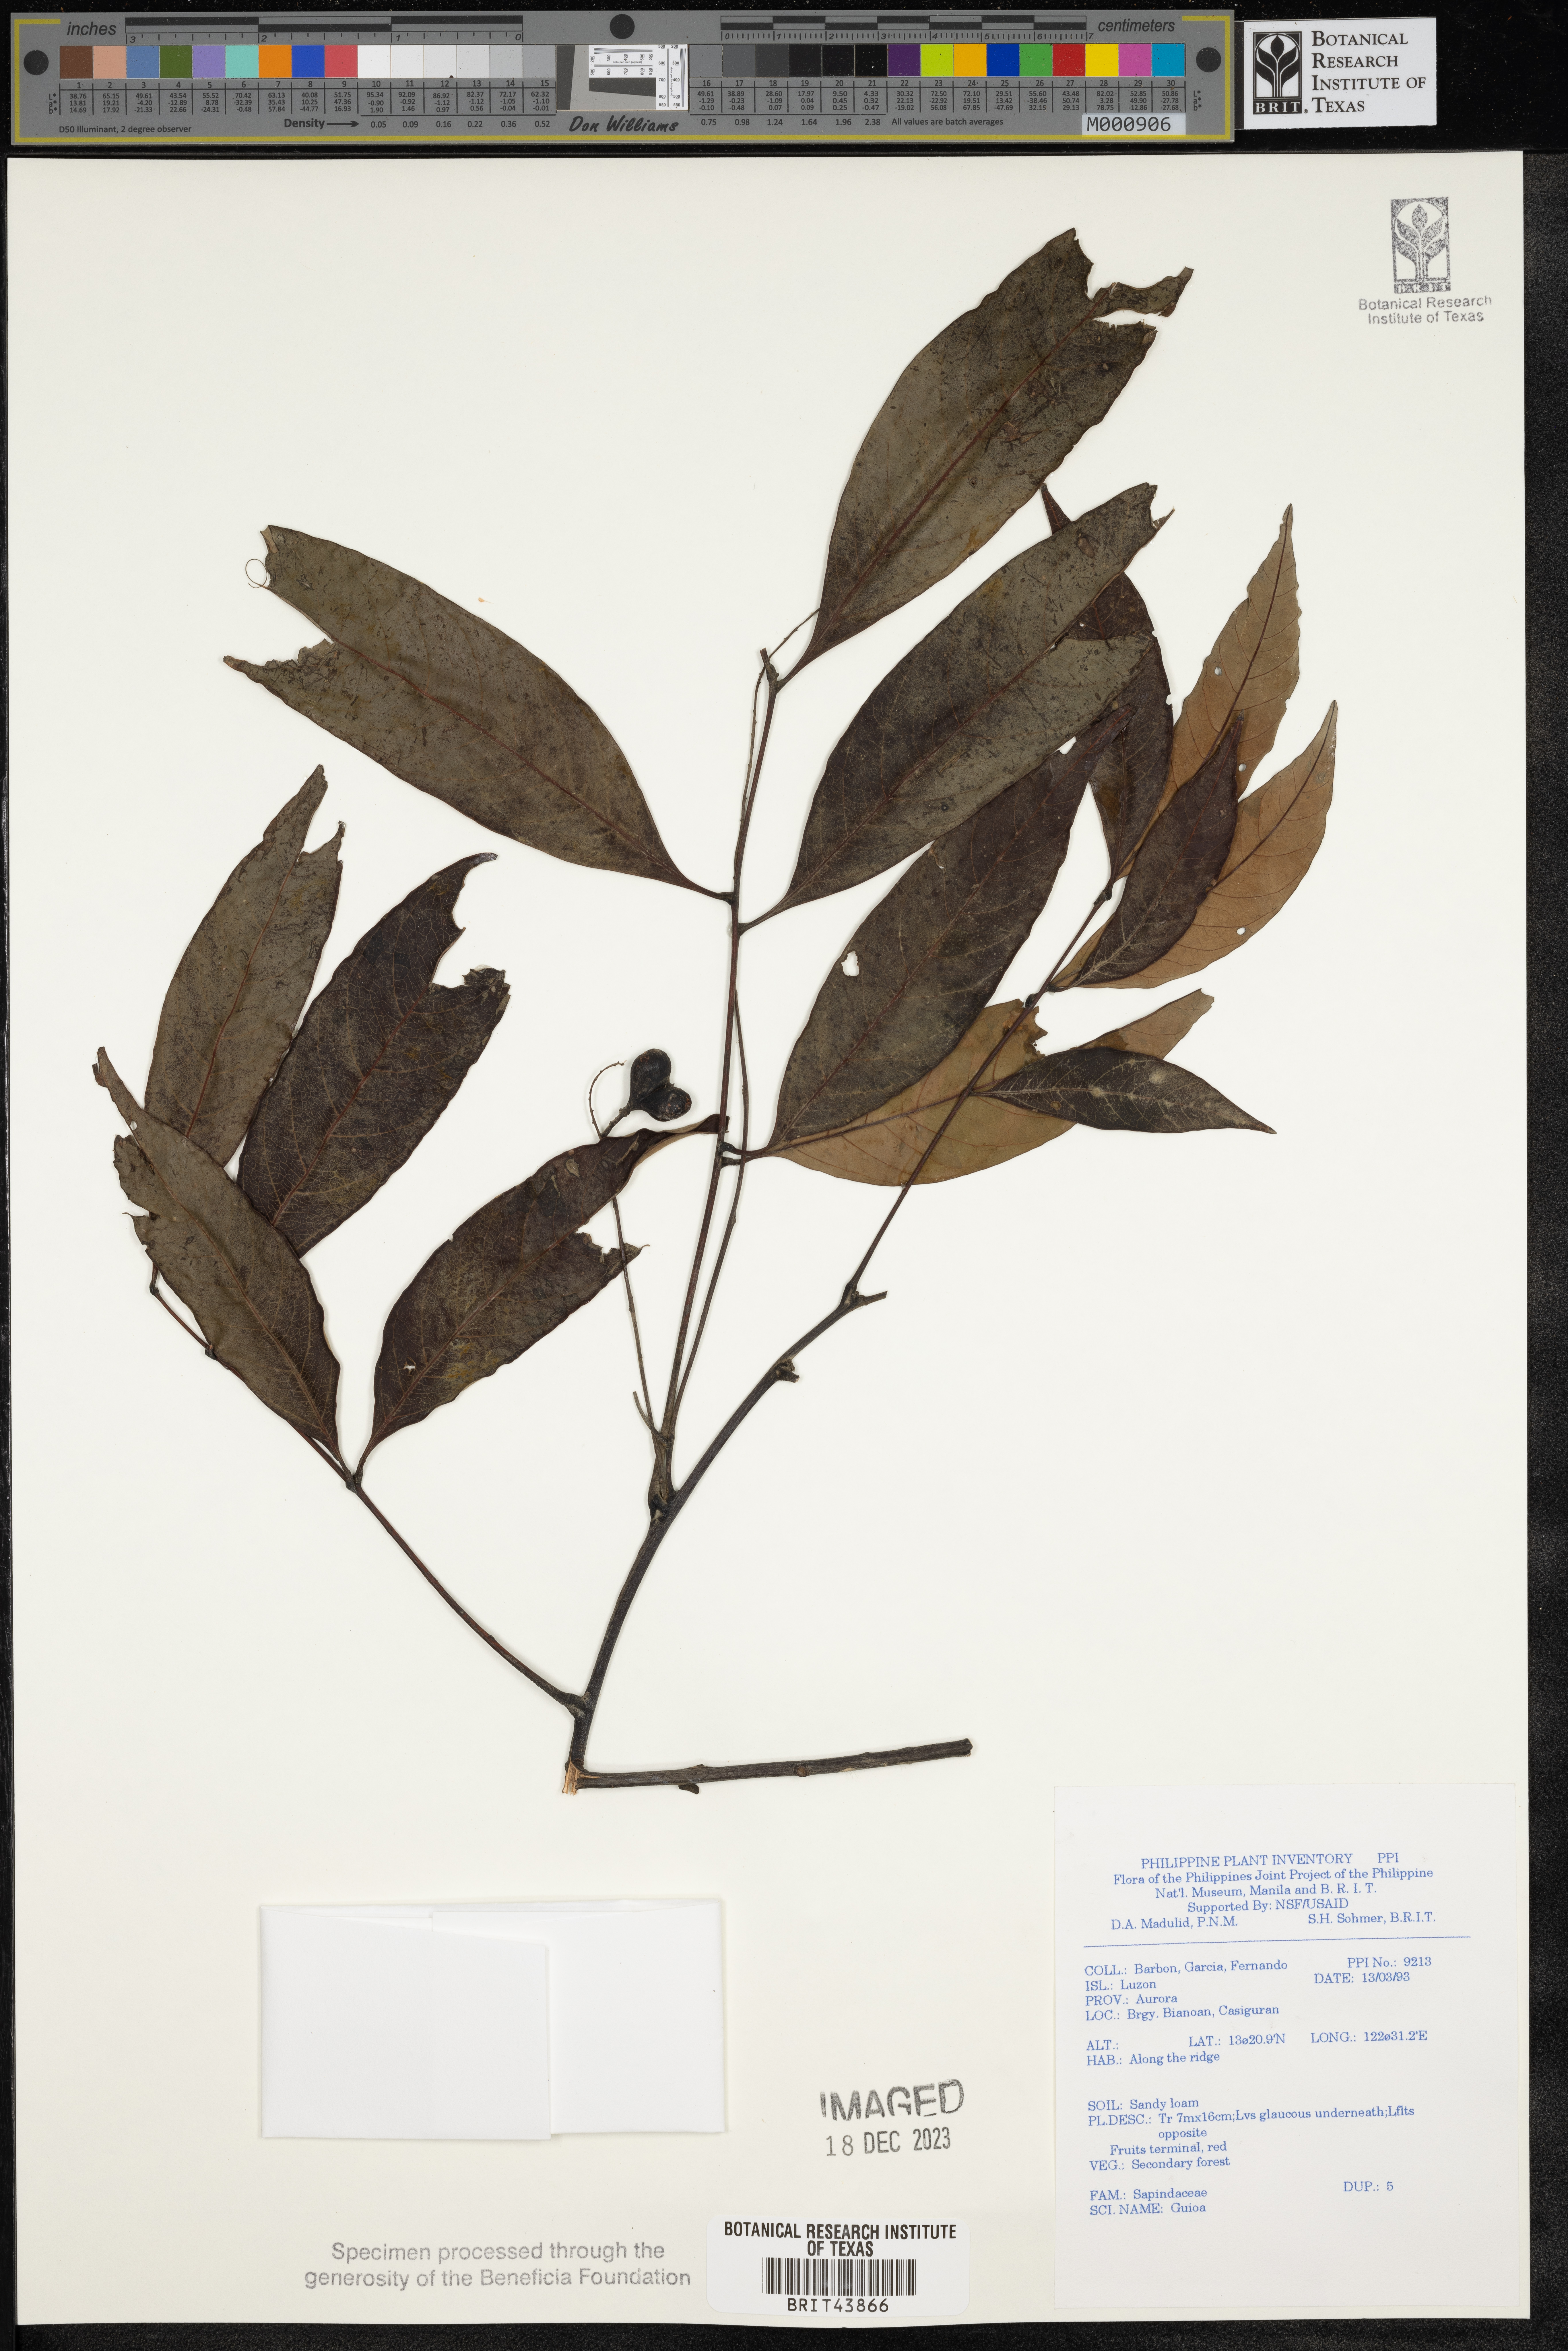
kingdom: Plantae
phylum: Tracheophyta
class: Magnoliopsida
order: Sapindales
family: Sapindaceae
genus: Guioa
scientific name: Guioa
